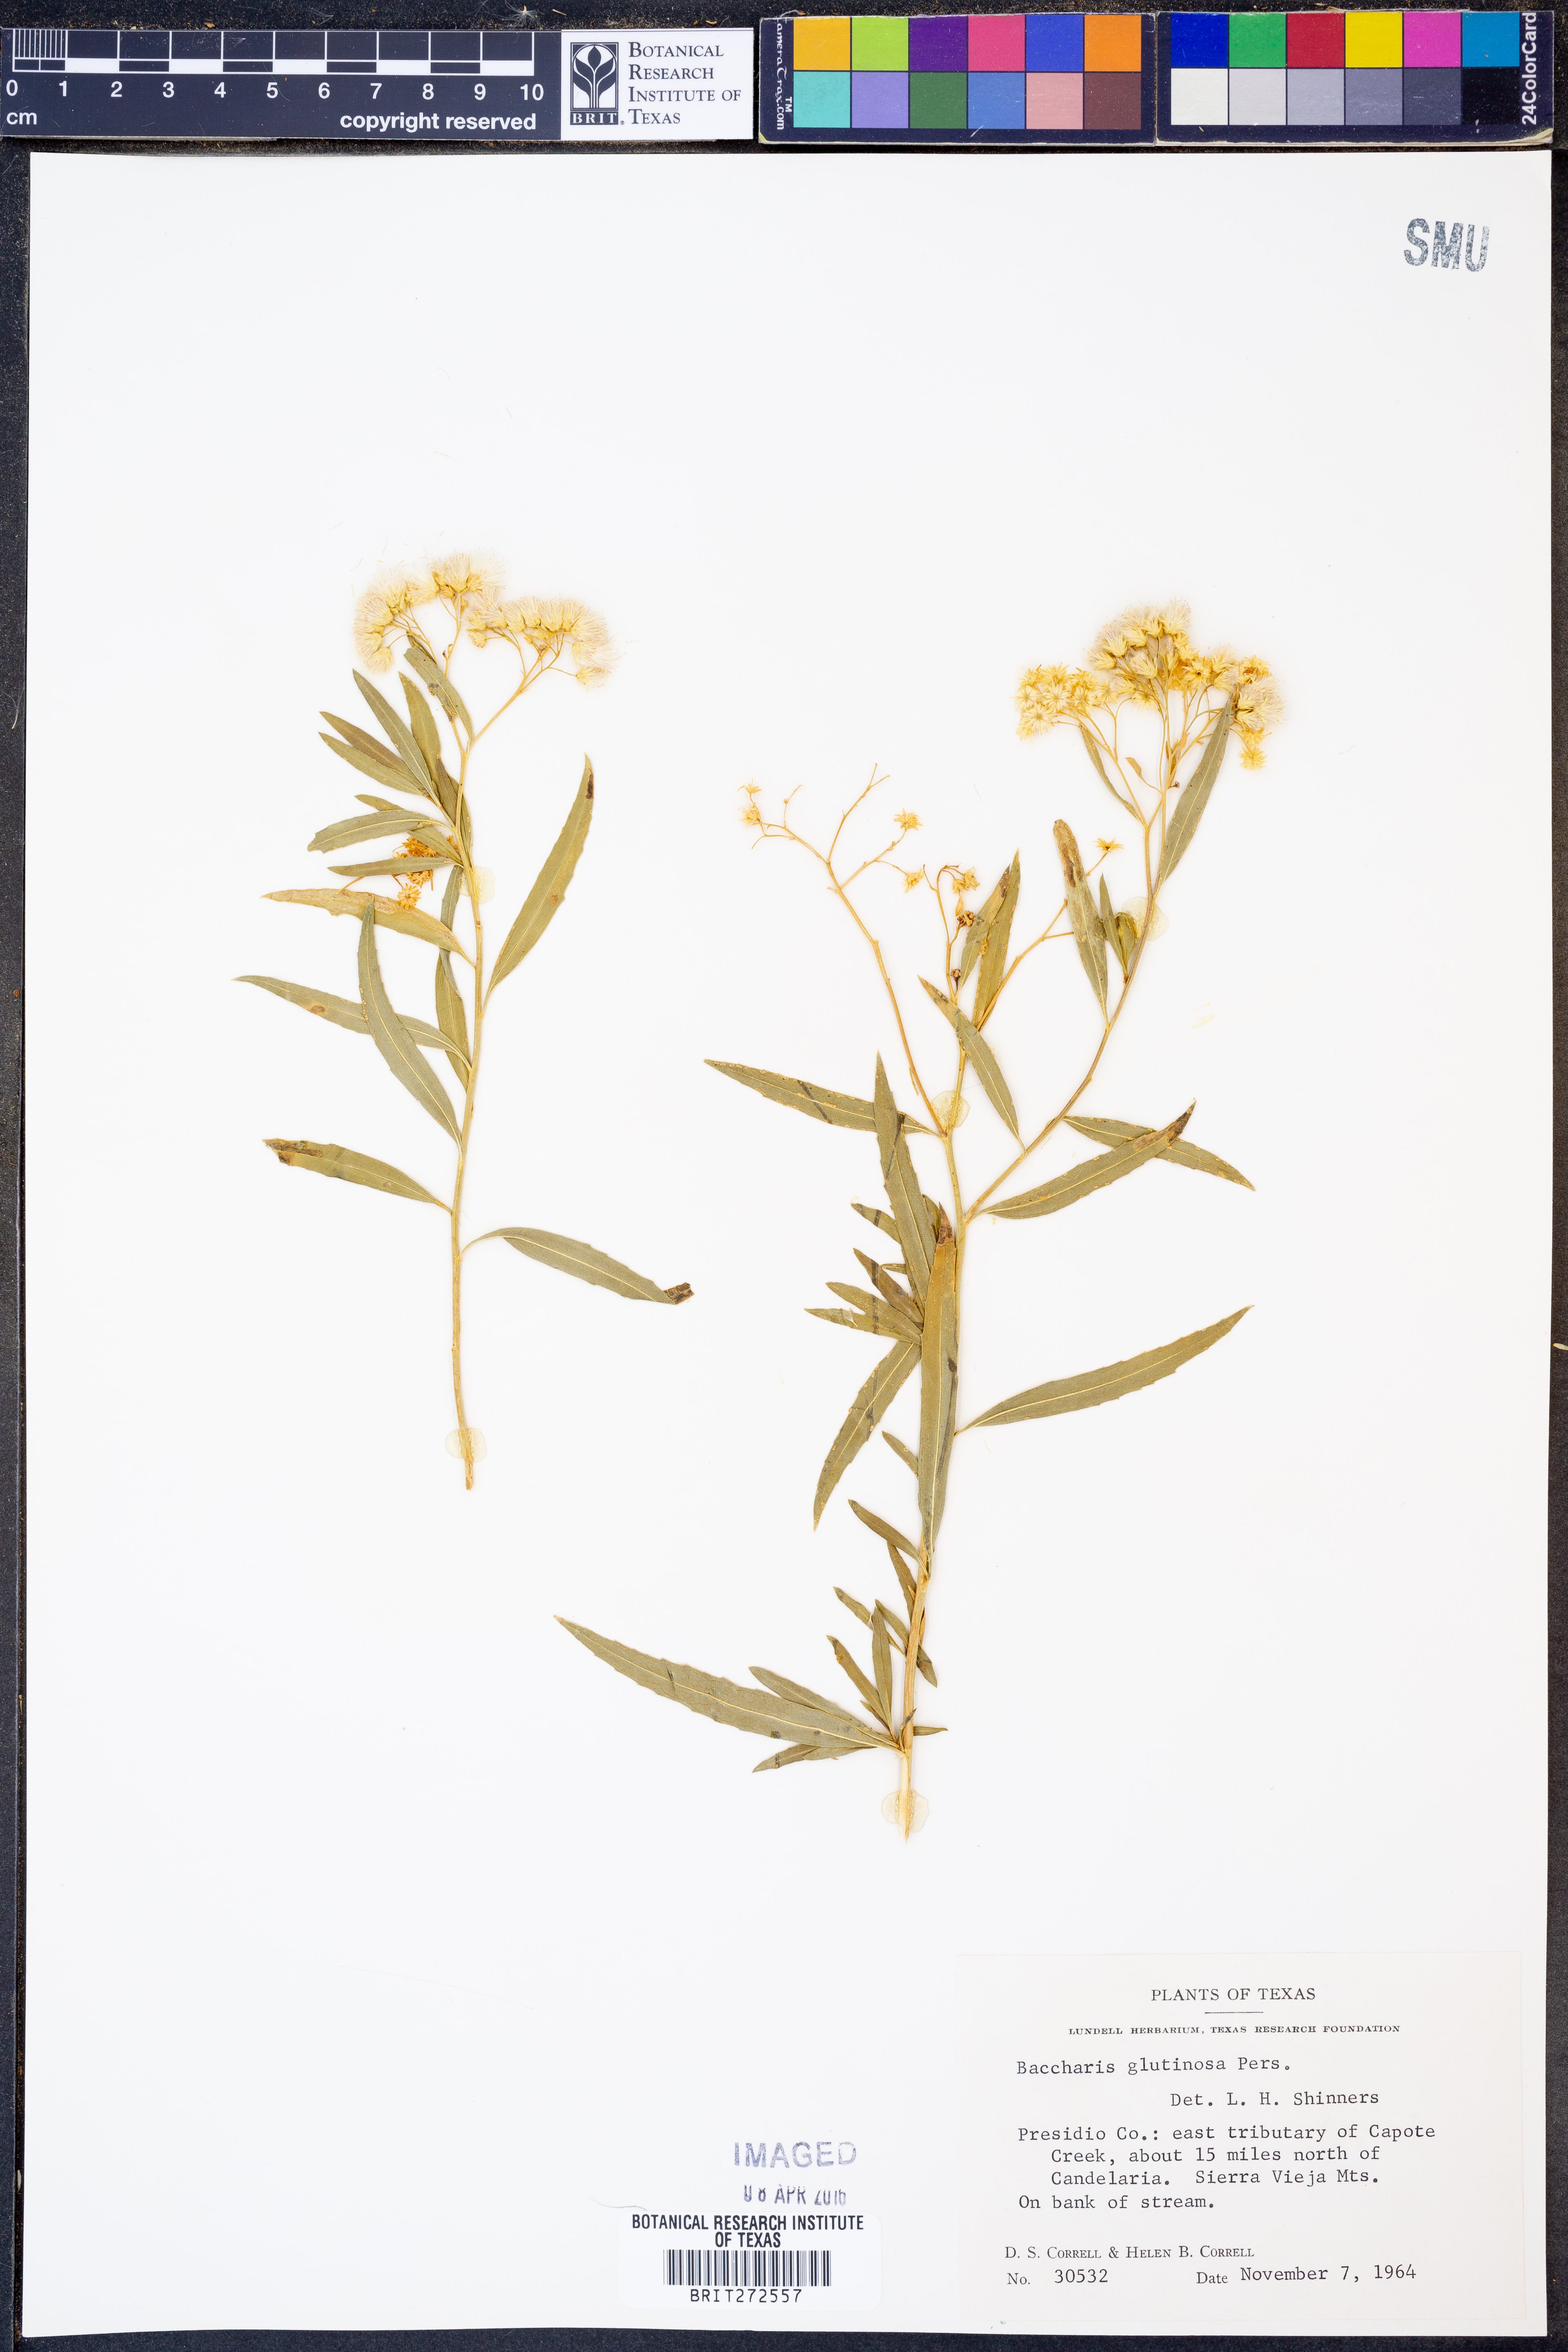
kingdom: Plantae
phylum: Tracheophyta
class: Magnoliopsida
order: Asterales
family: Asteraceae
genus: Baccharis
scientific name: Baccharis glutinosa
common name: Saltmarsh baccharis
